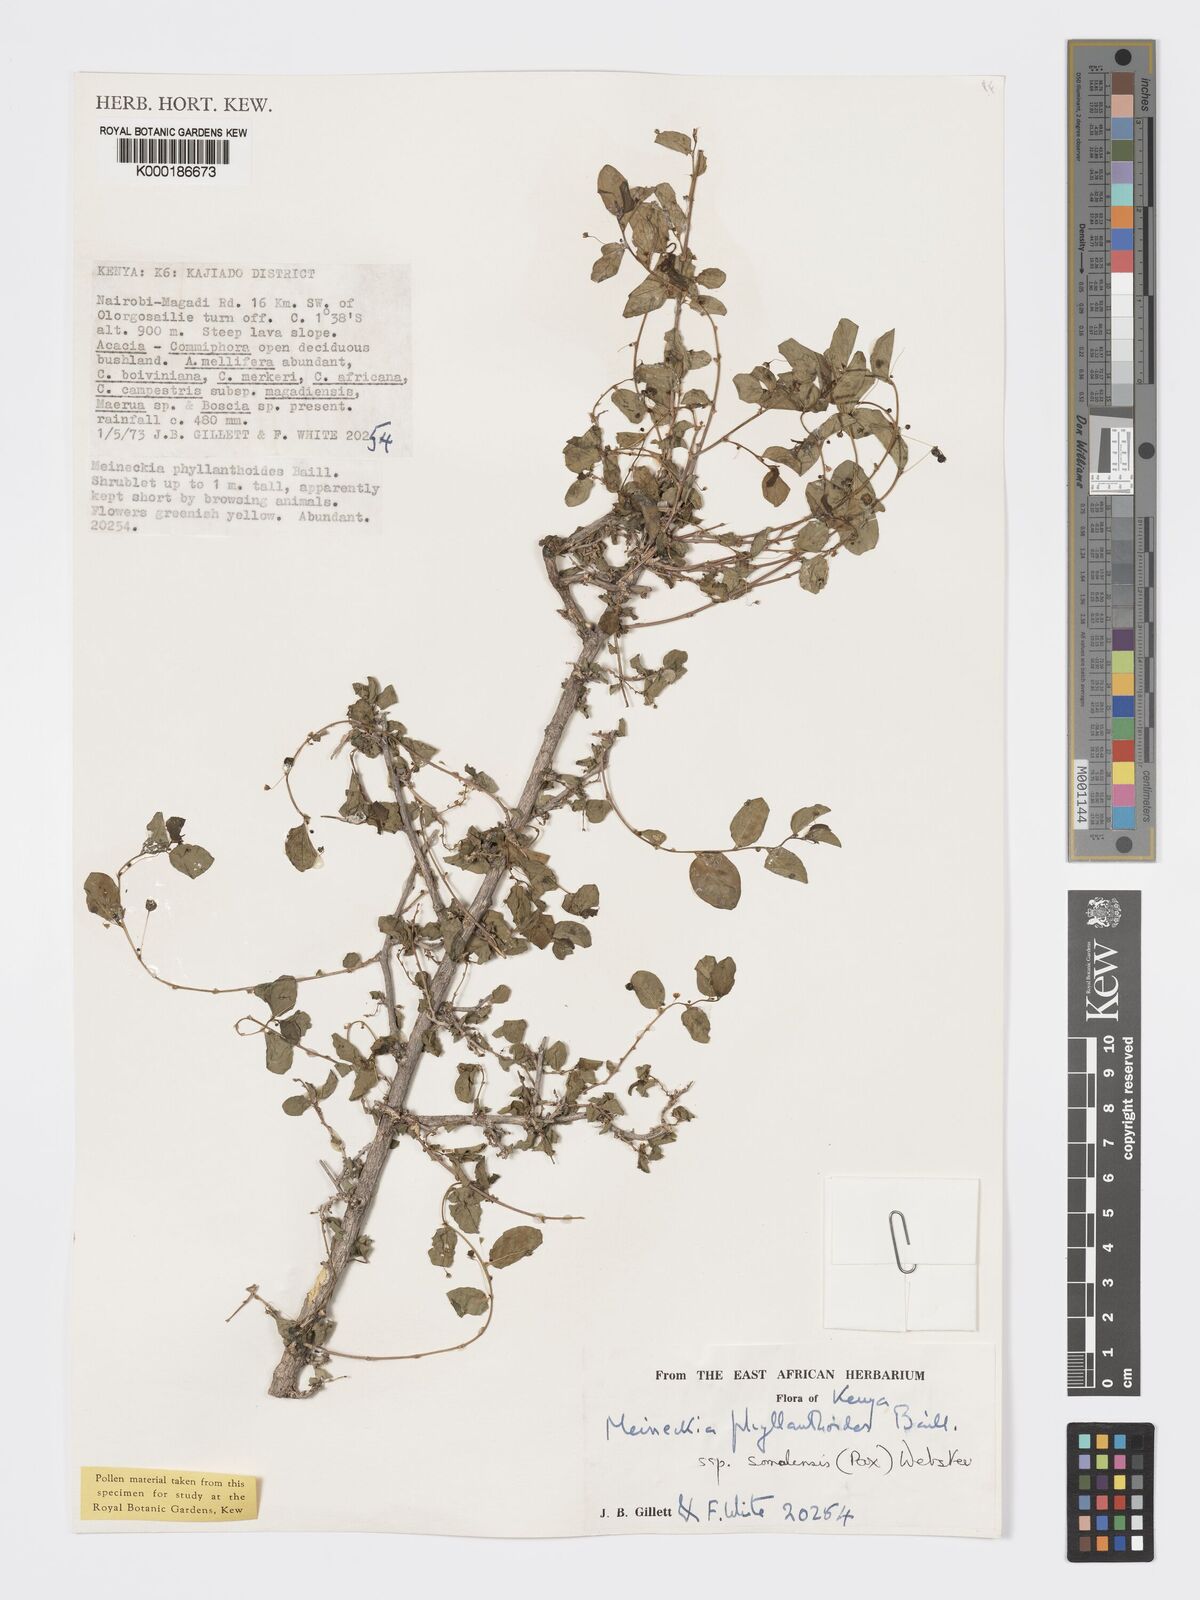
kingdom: Plantae
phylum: Tracheophyta
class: Magnoliopsida
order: Malpighiales
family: Phyllanthaceae
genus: Meineckia
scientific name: Meineckia phyllanthoides
